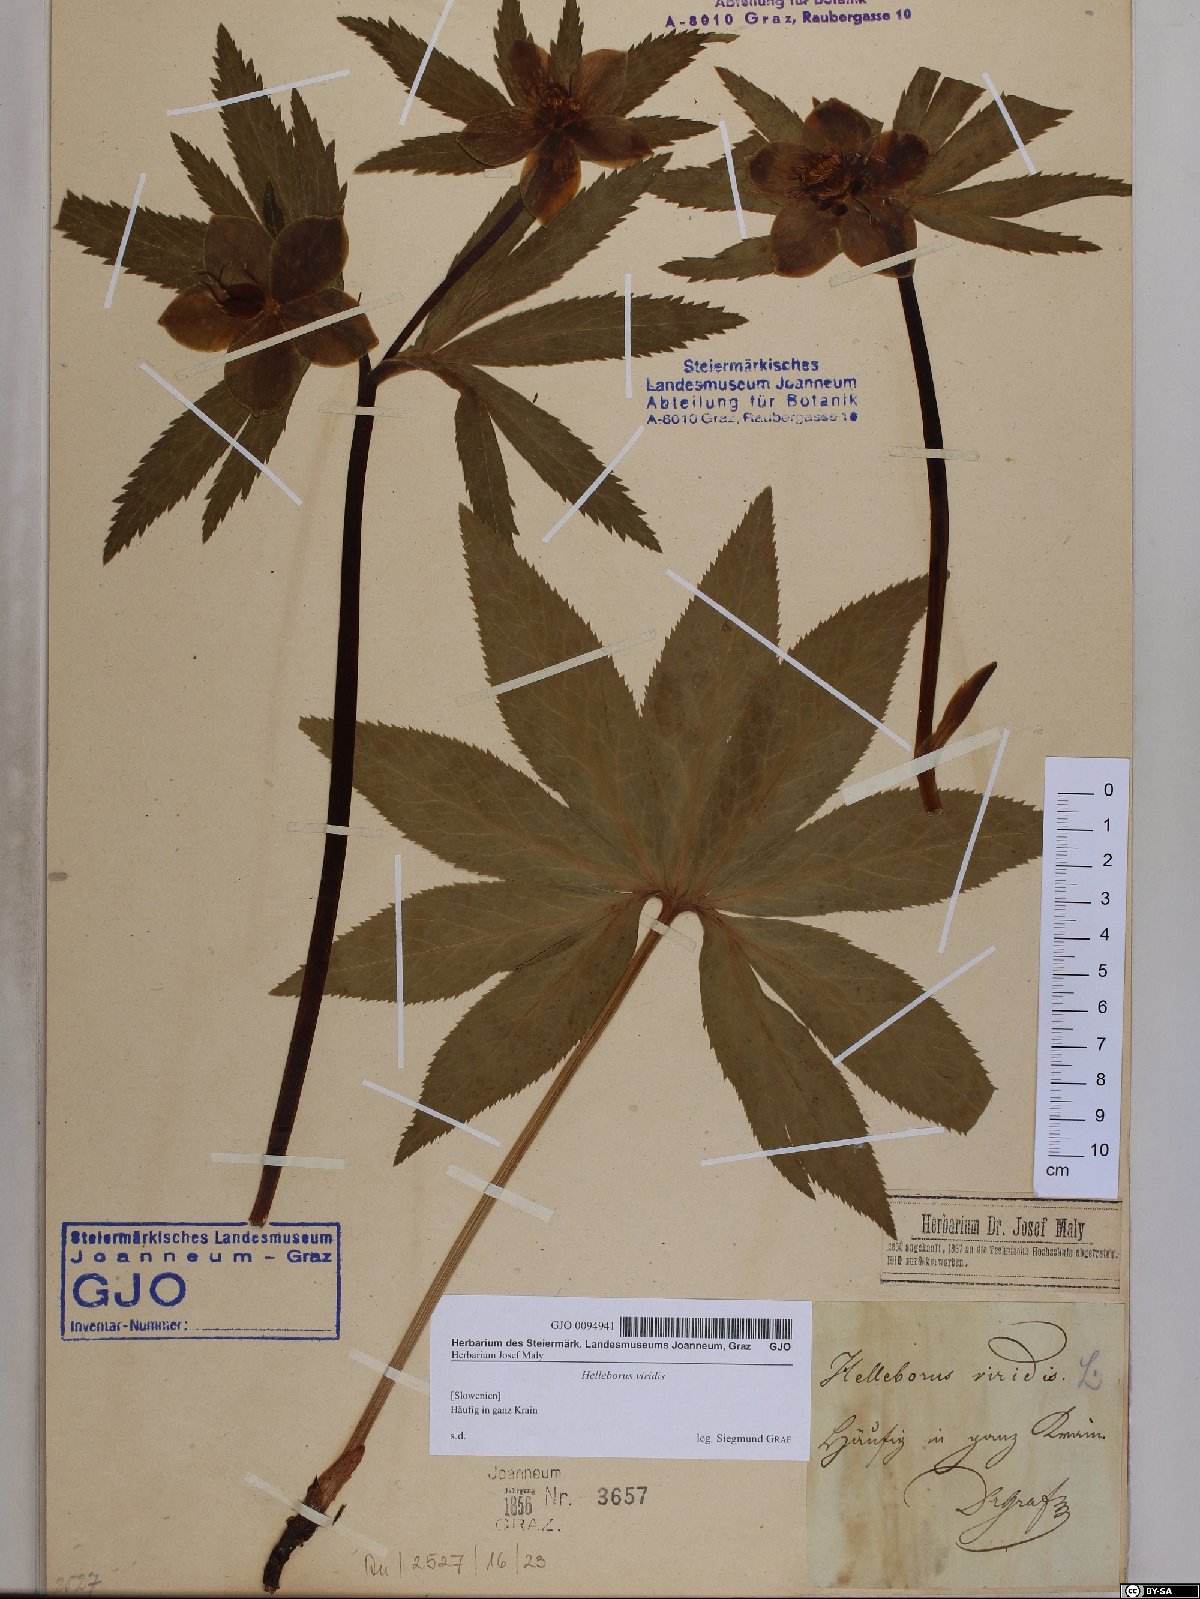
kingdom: Plantae
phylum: Tracheophyta
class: Magnoliopsida
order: Ranunculales
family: Ranunculaceae
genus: Helleborus
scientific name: Helleborus viridis
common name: Green hellebore
